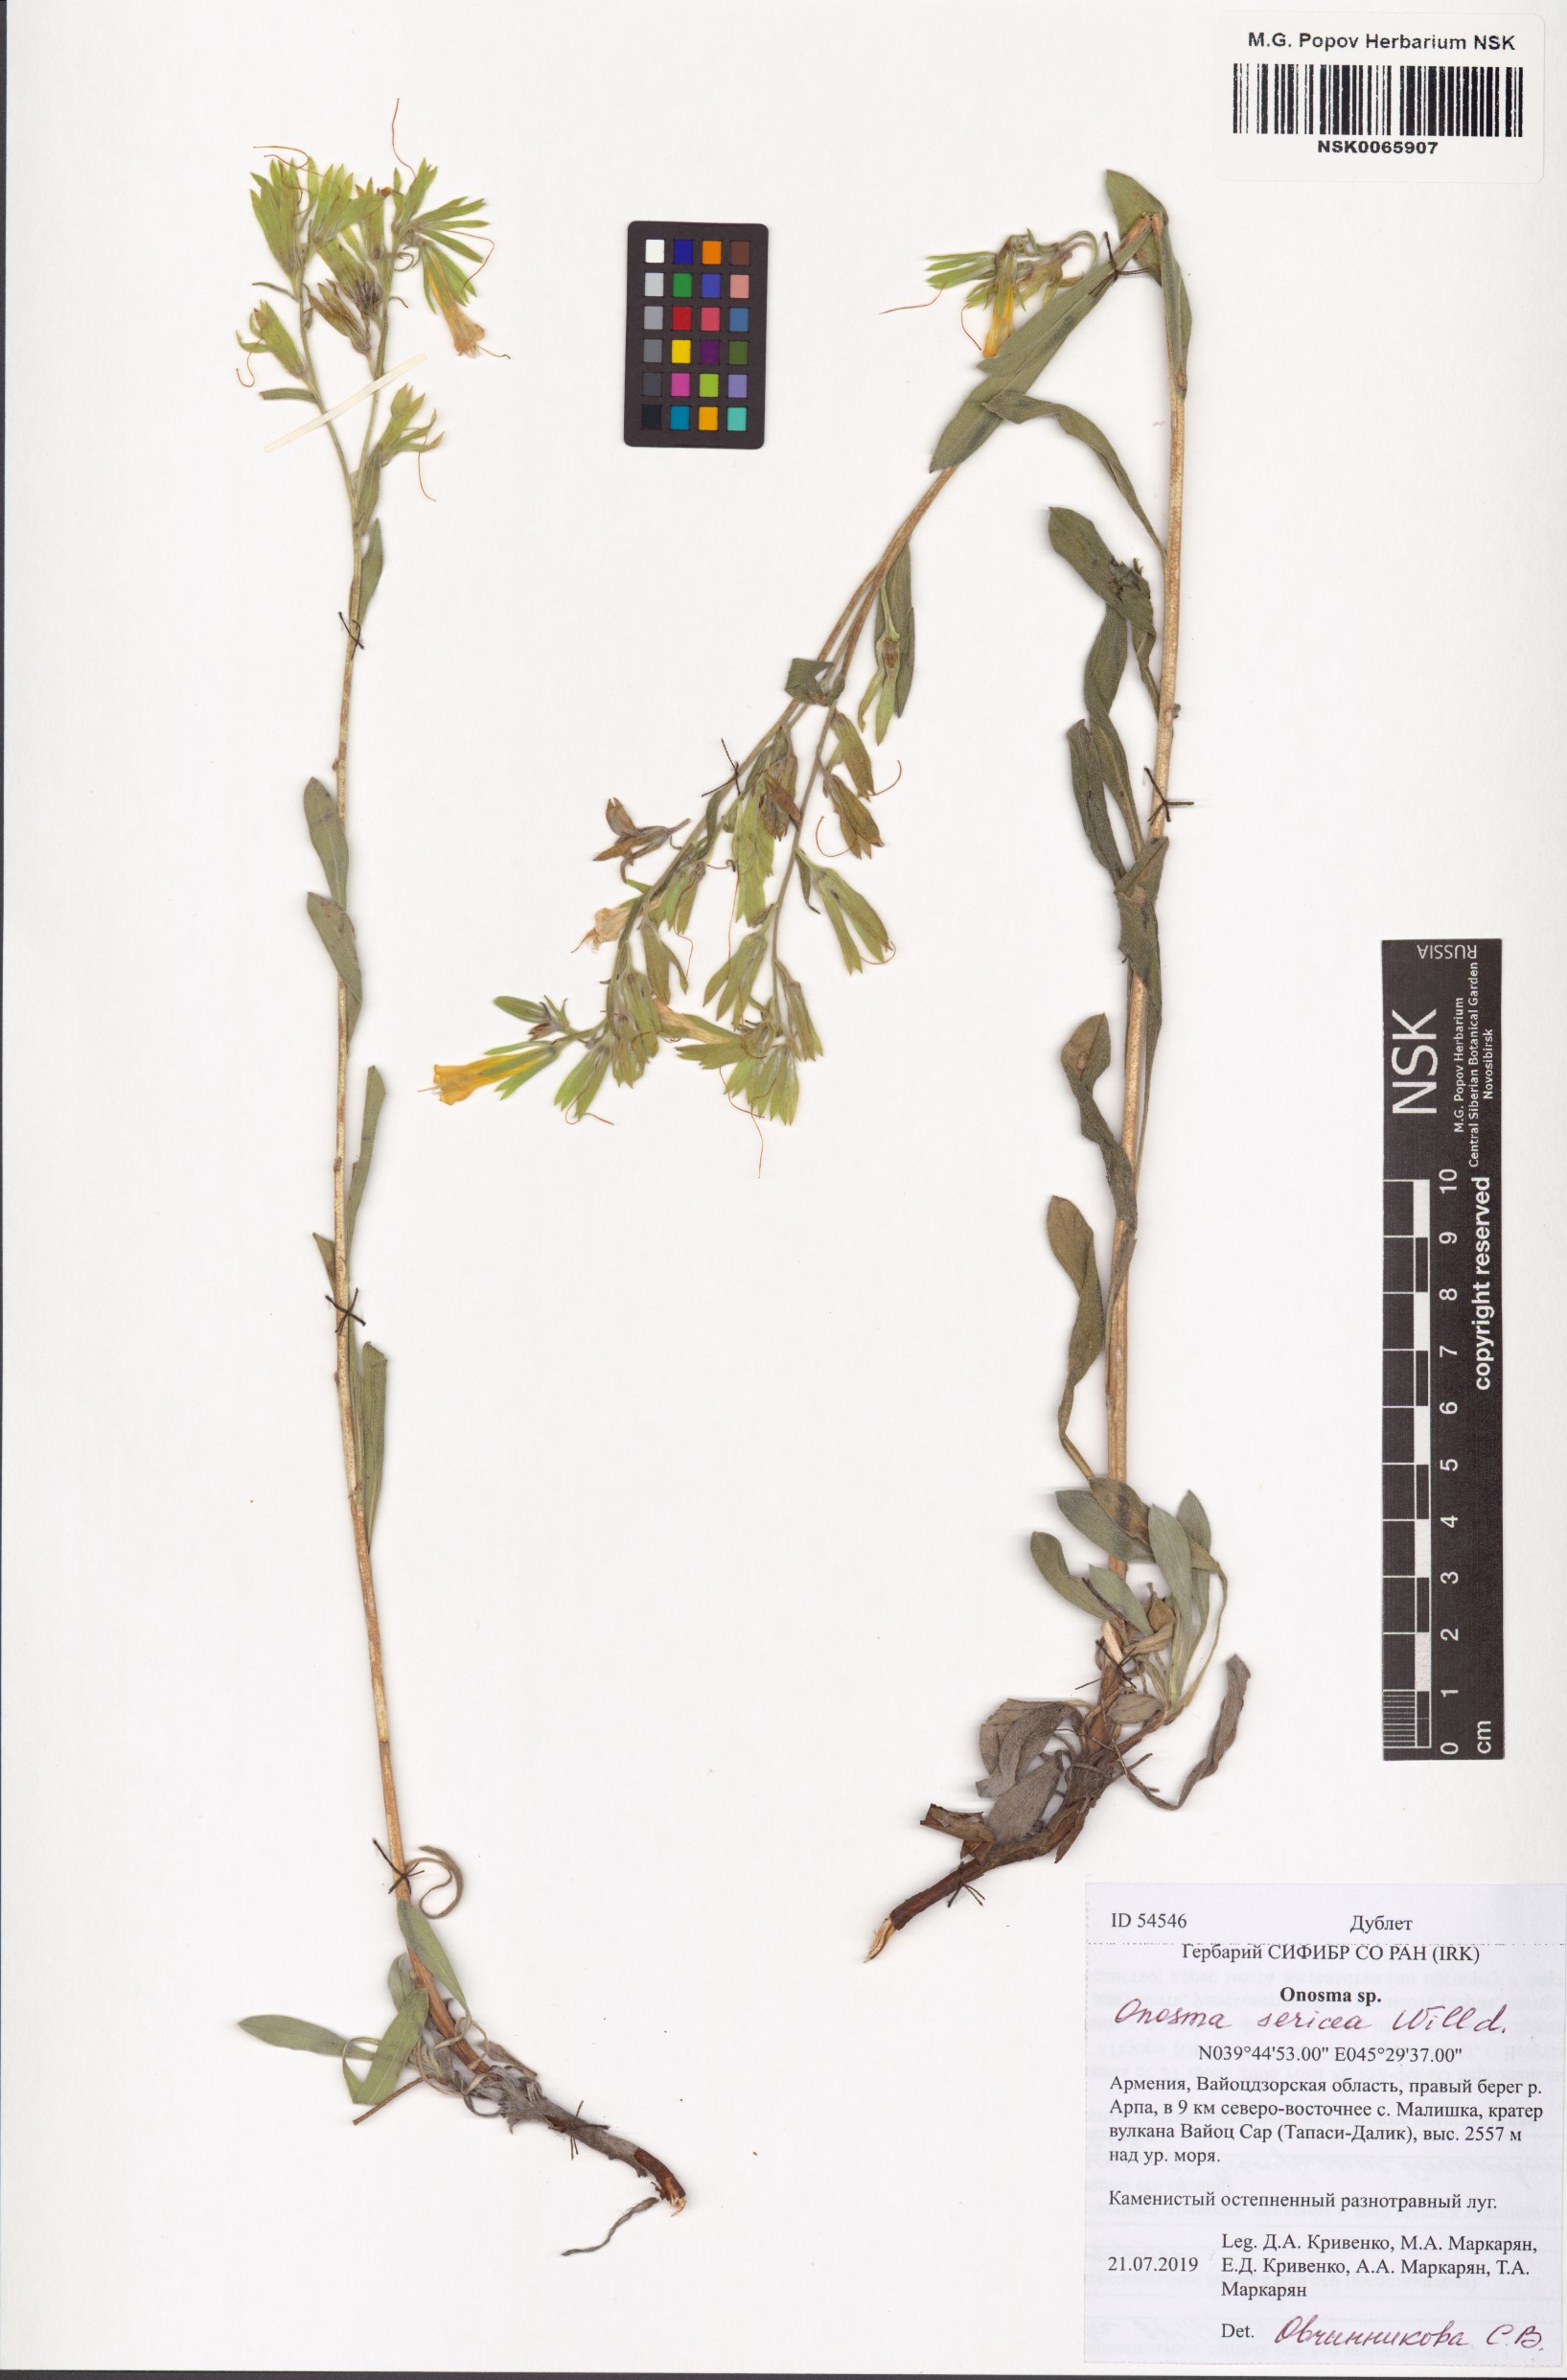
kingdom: Plantae
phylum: Tracheophyta
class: Magnoliopsida
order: Boraginales
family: Boraginaceae
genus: Onosma
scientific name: Onosma sericea
